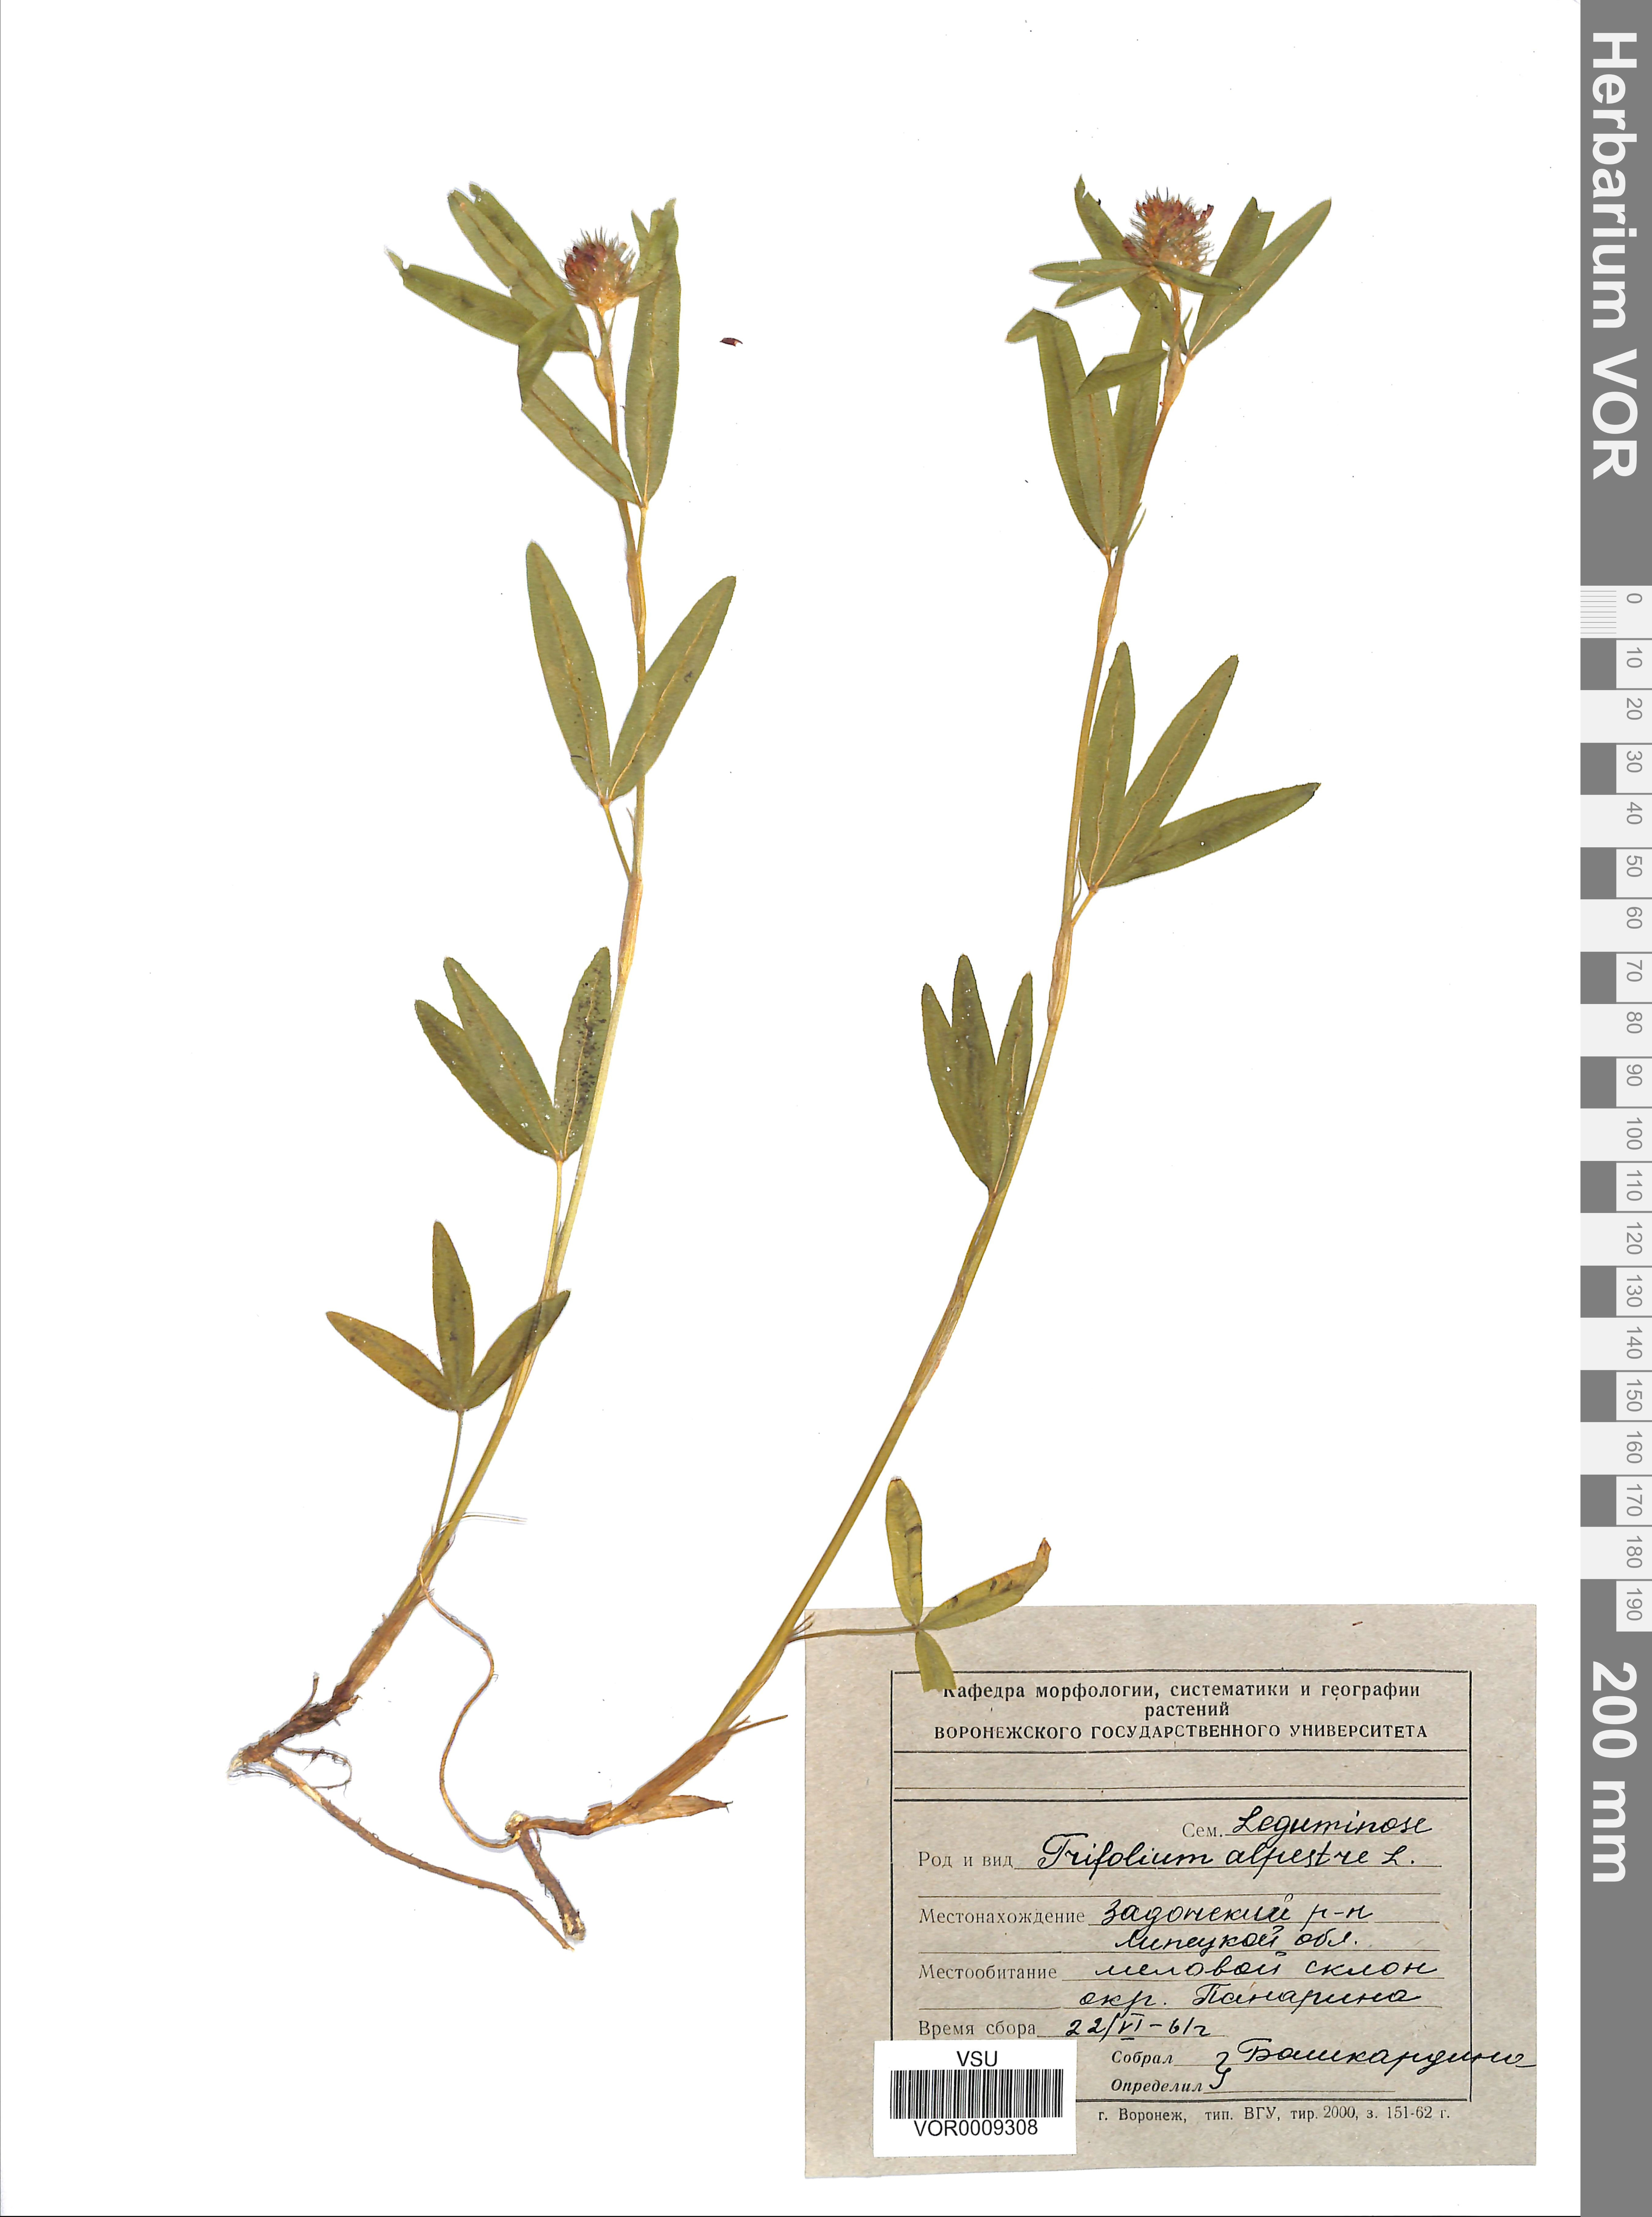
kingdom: Plantae
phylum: Tracheophyta
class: Magnoliopsida
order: Fabales
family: Fabaceae
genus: Trifolium
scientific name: Trifolium alpestre
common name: Owl-head clover
